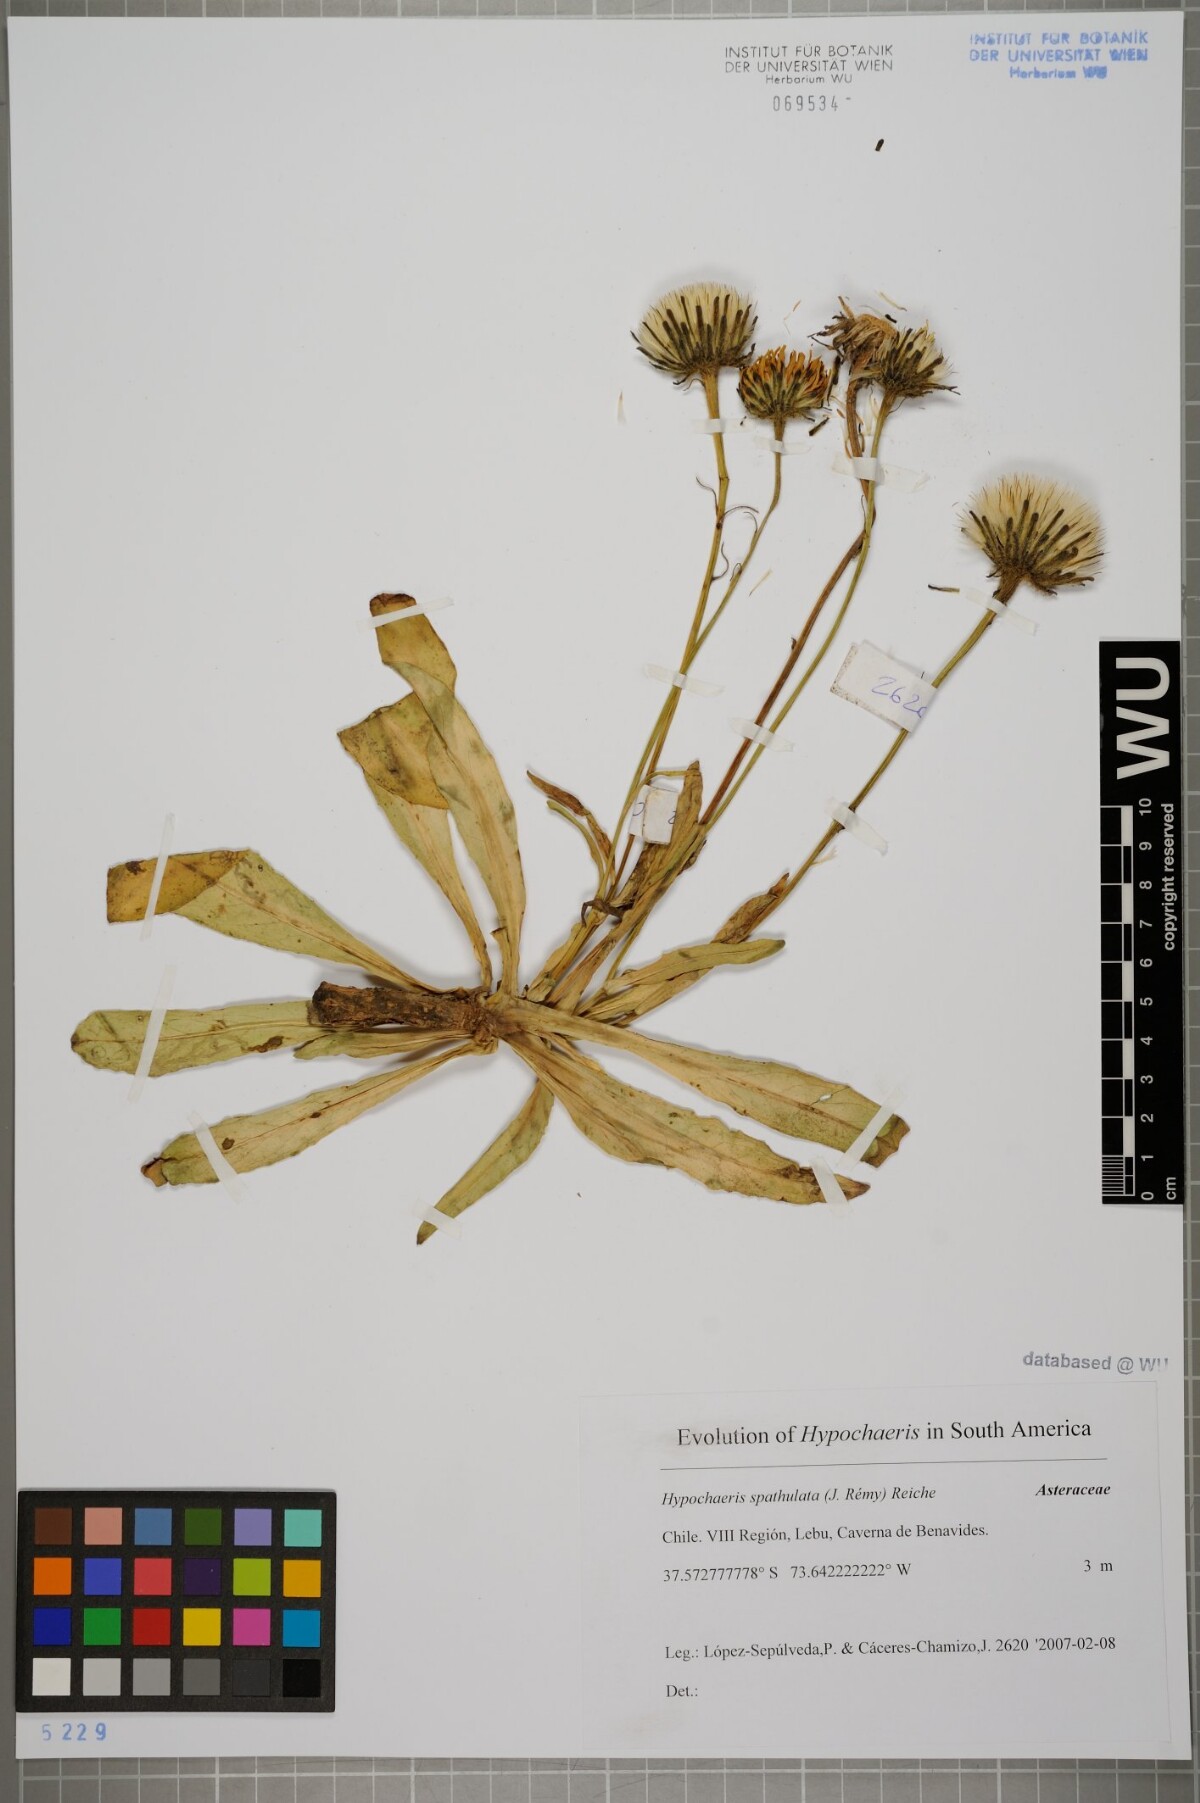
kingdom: Plantae
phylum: Tracheophyta
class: Magnoliopsida
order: Asterales
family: Asteraceae
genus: Hypochaeris
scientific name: Hypochaeris spathulata
